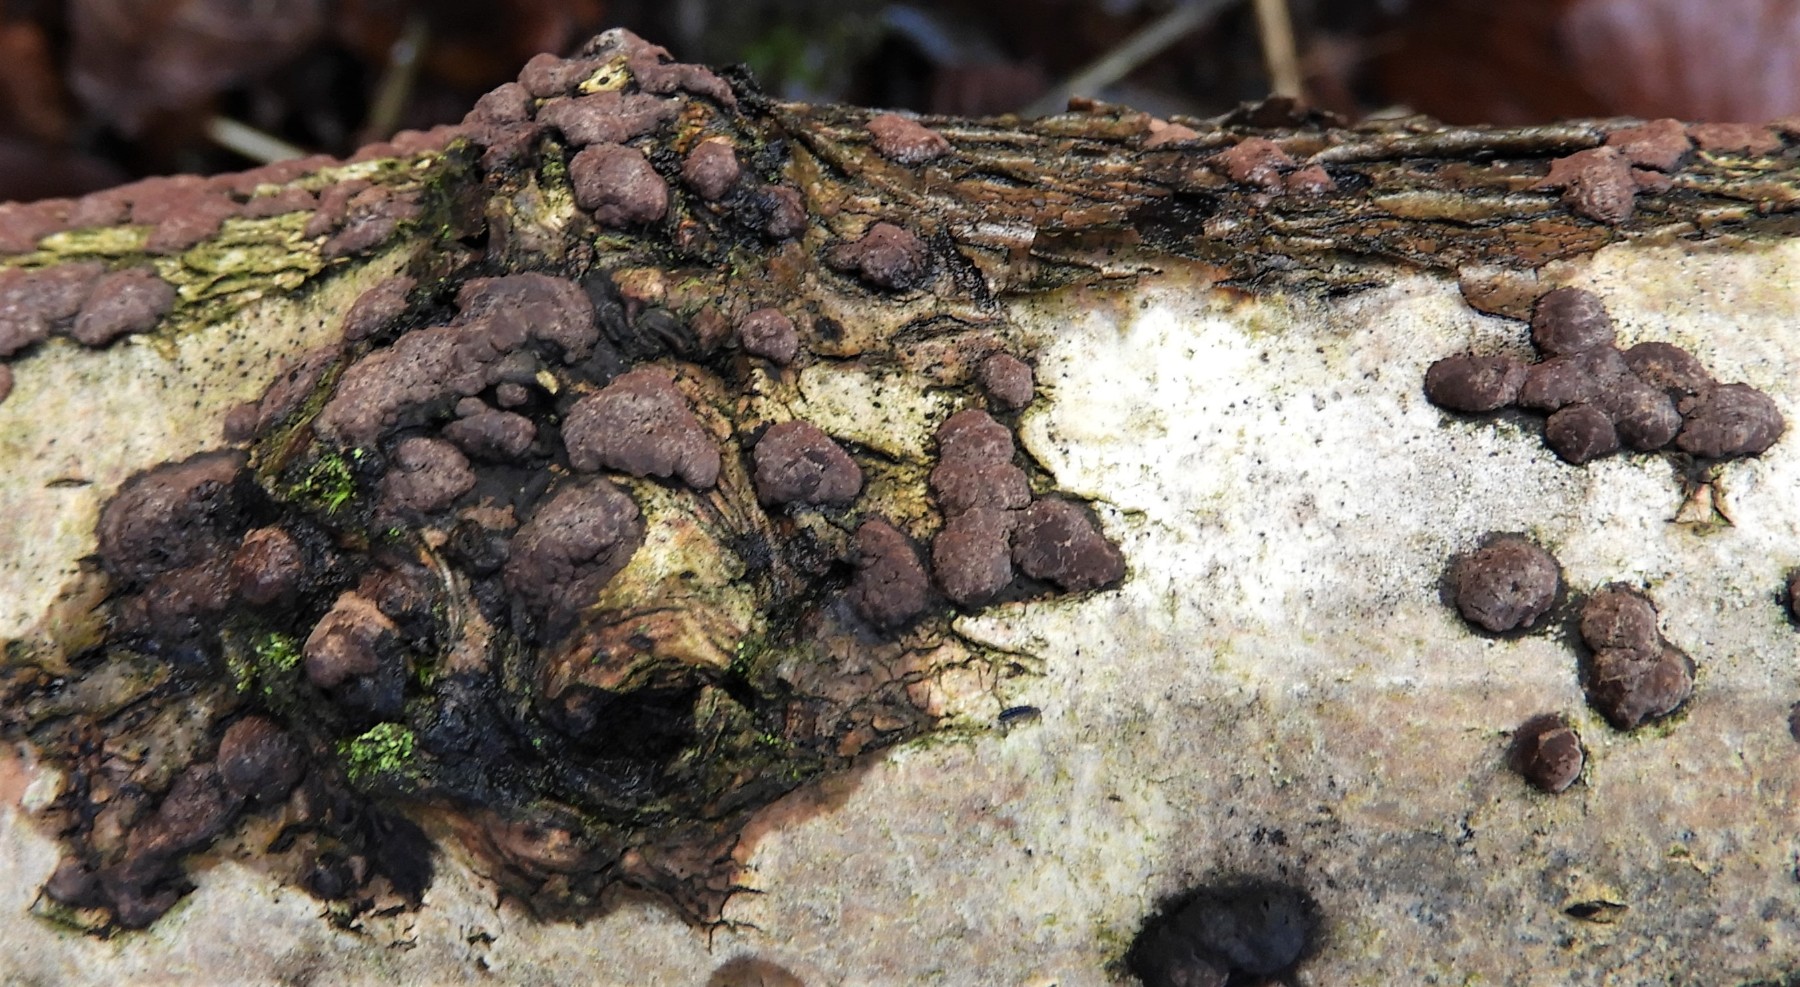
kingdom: Fungi
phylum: Ascomycota
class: Sordariomycetes
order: Xylariales
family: Hypoxylaceae
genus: Hypoxylon
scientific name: Hypoxylon fuscum
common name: kegleformet kulbær
